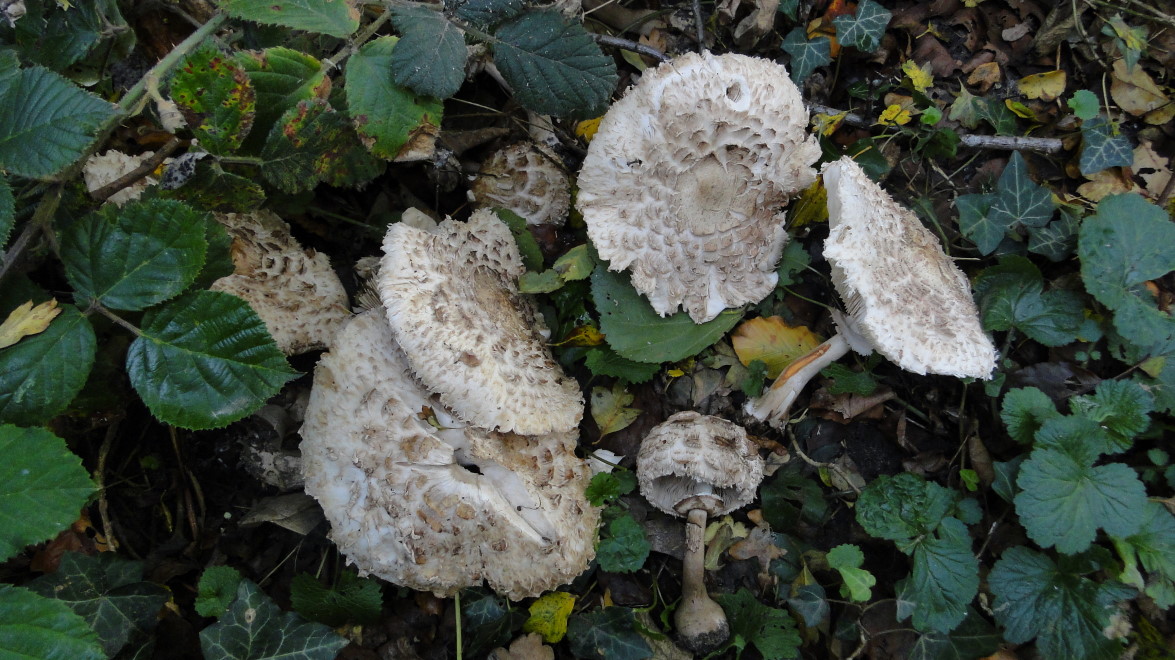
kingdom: Fungi
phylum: Basidiomycota
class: Agaricomycetes
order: Agaricales
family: Agaricaceae
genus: Chlorophyllum
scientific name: Chlorophyllum rhacodes
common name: ægte rabarberhat
